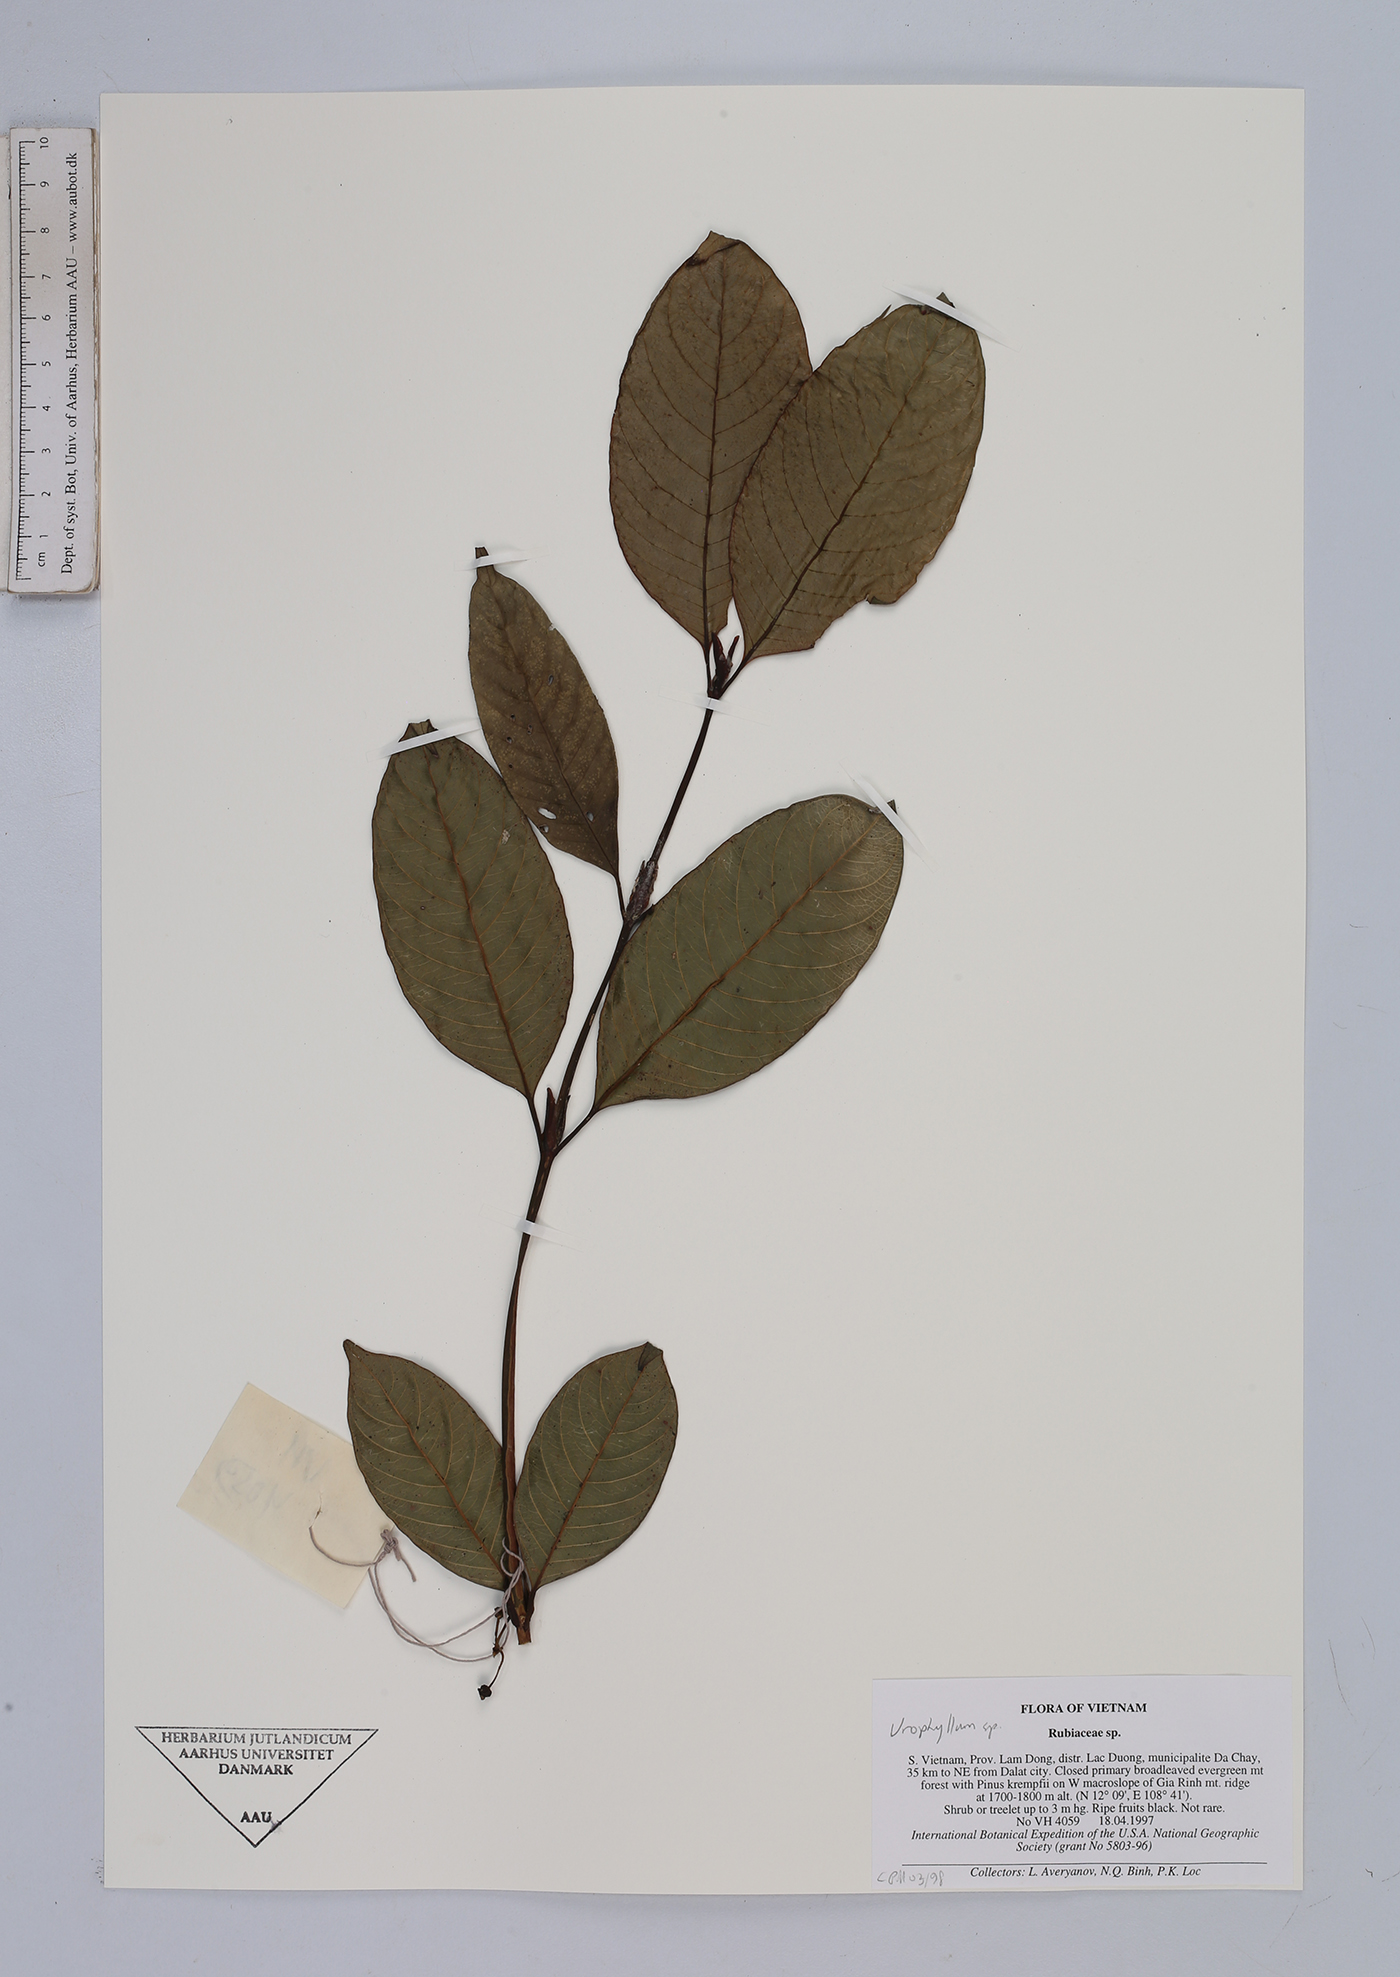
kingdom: Plantae
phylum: Tracheophyta
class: Magnoliopsida
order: Gentianales
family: Rubiaceae
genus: Urophyllum
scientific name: Urophyllum
